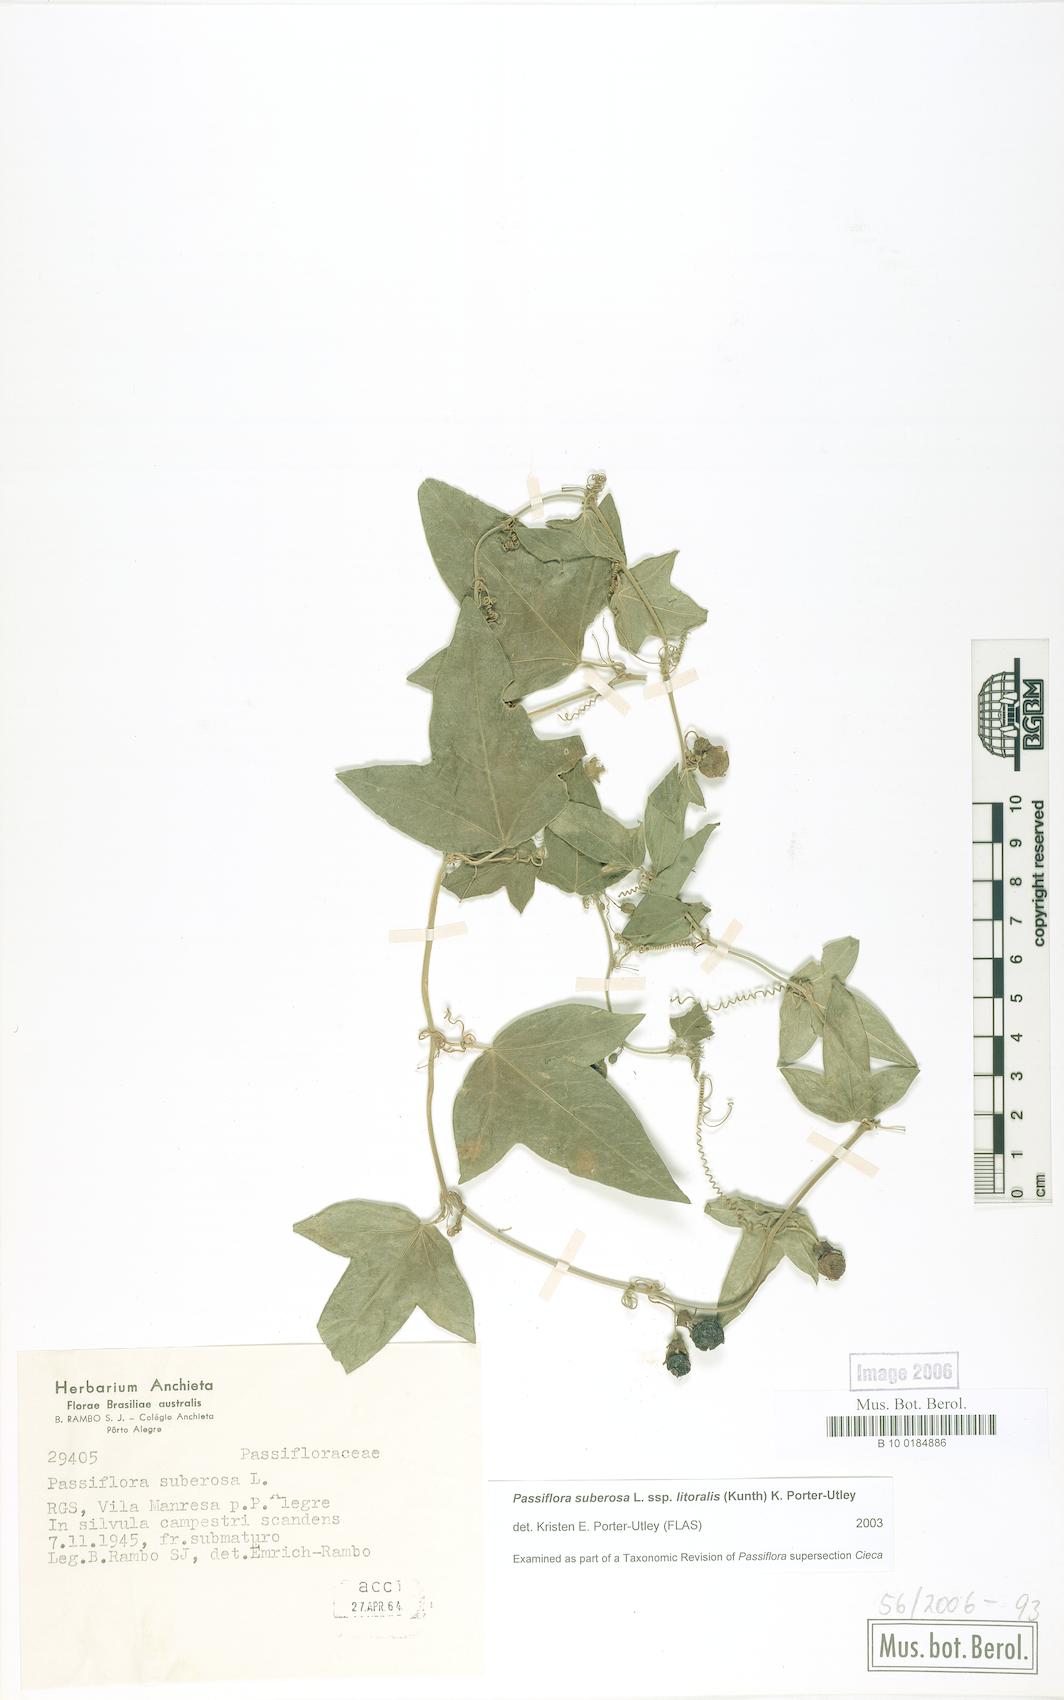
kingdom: Plantae
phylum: Tracheophyta
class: Magnoliopsida
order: Malpighiales
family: Passifloraceae
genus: Passiflora
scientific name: Passiflora suberosa
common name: Wild passionfruit
